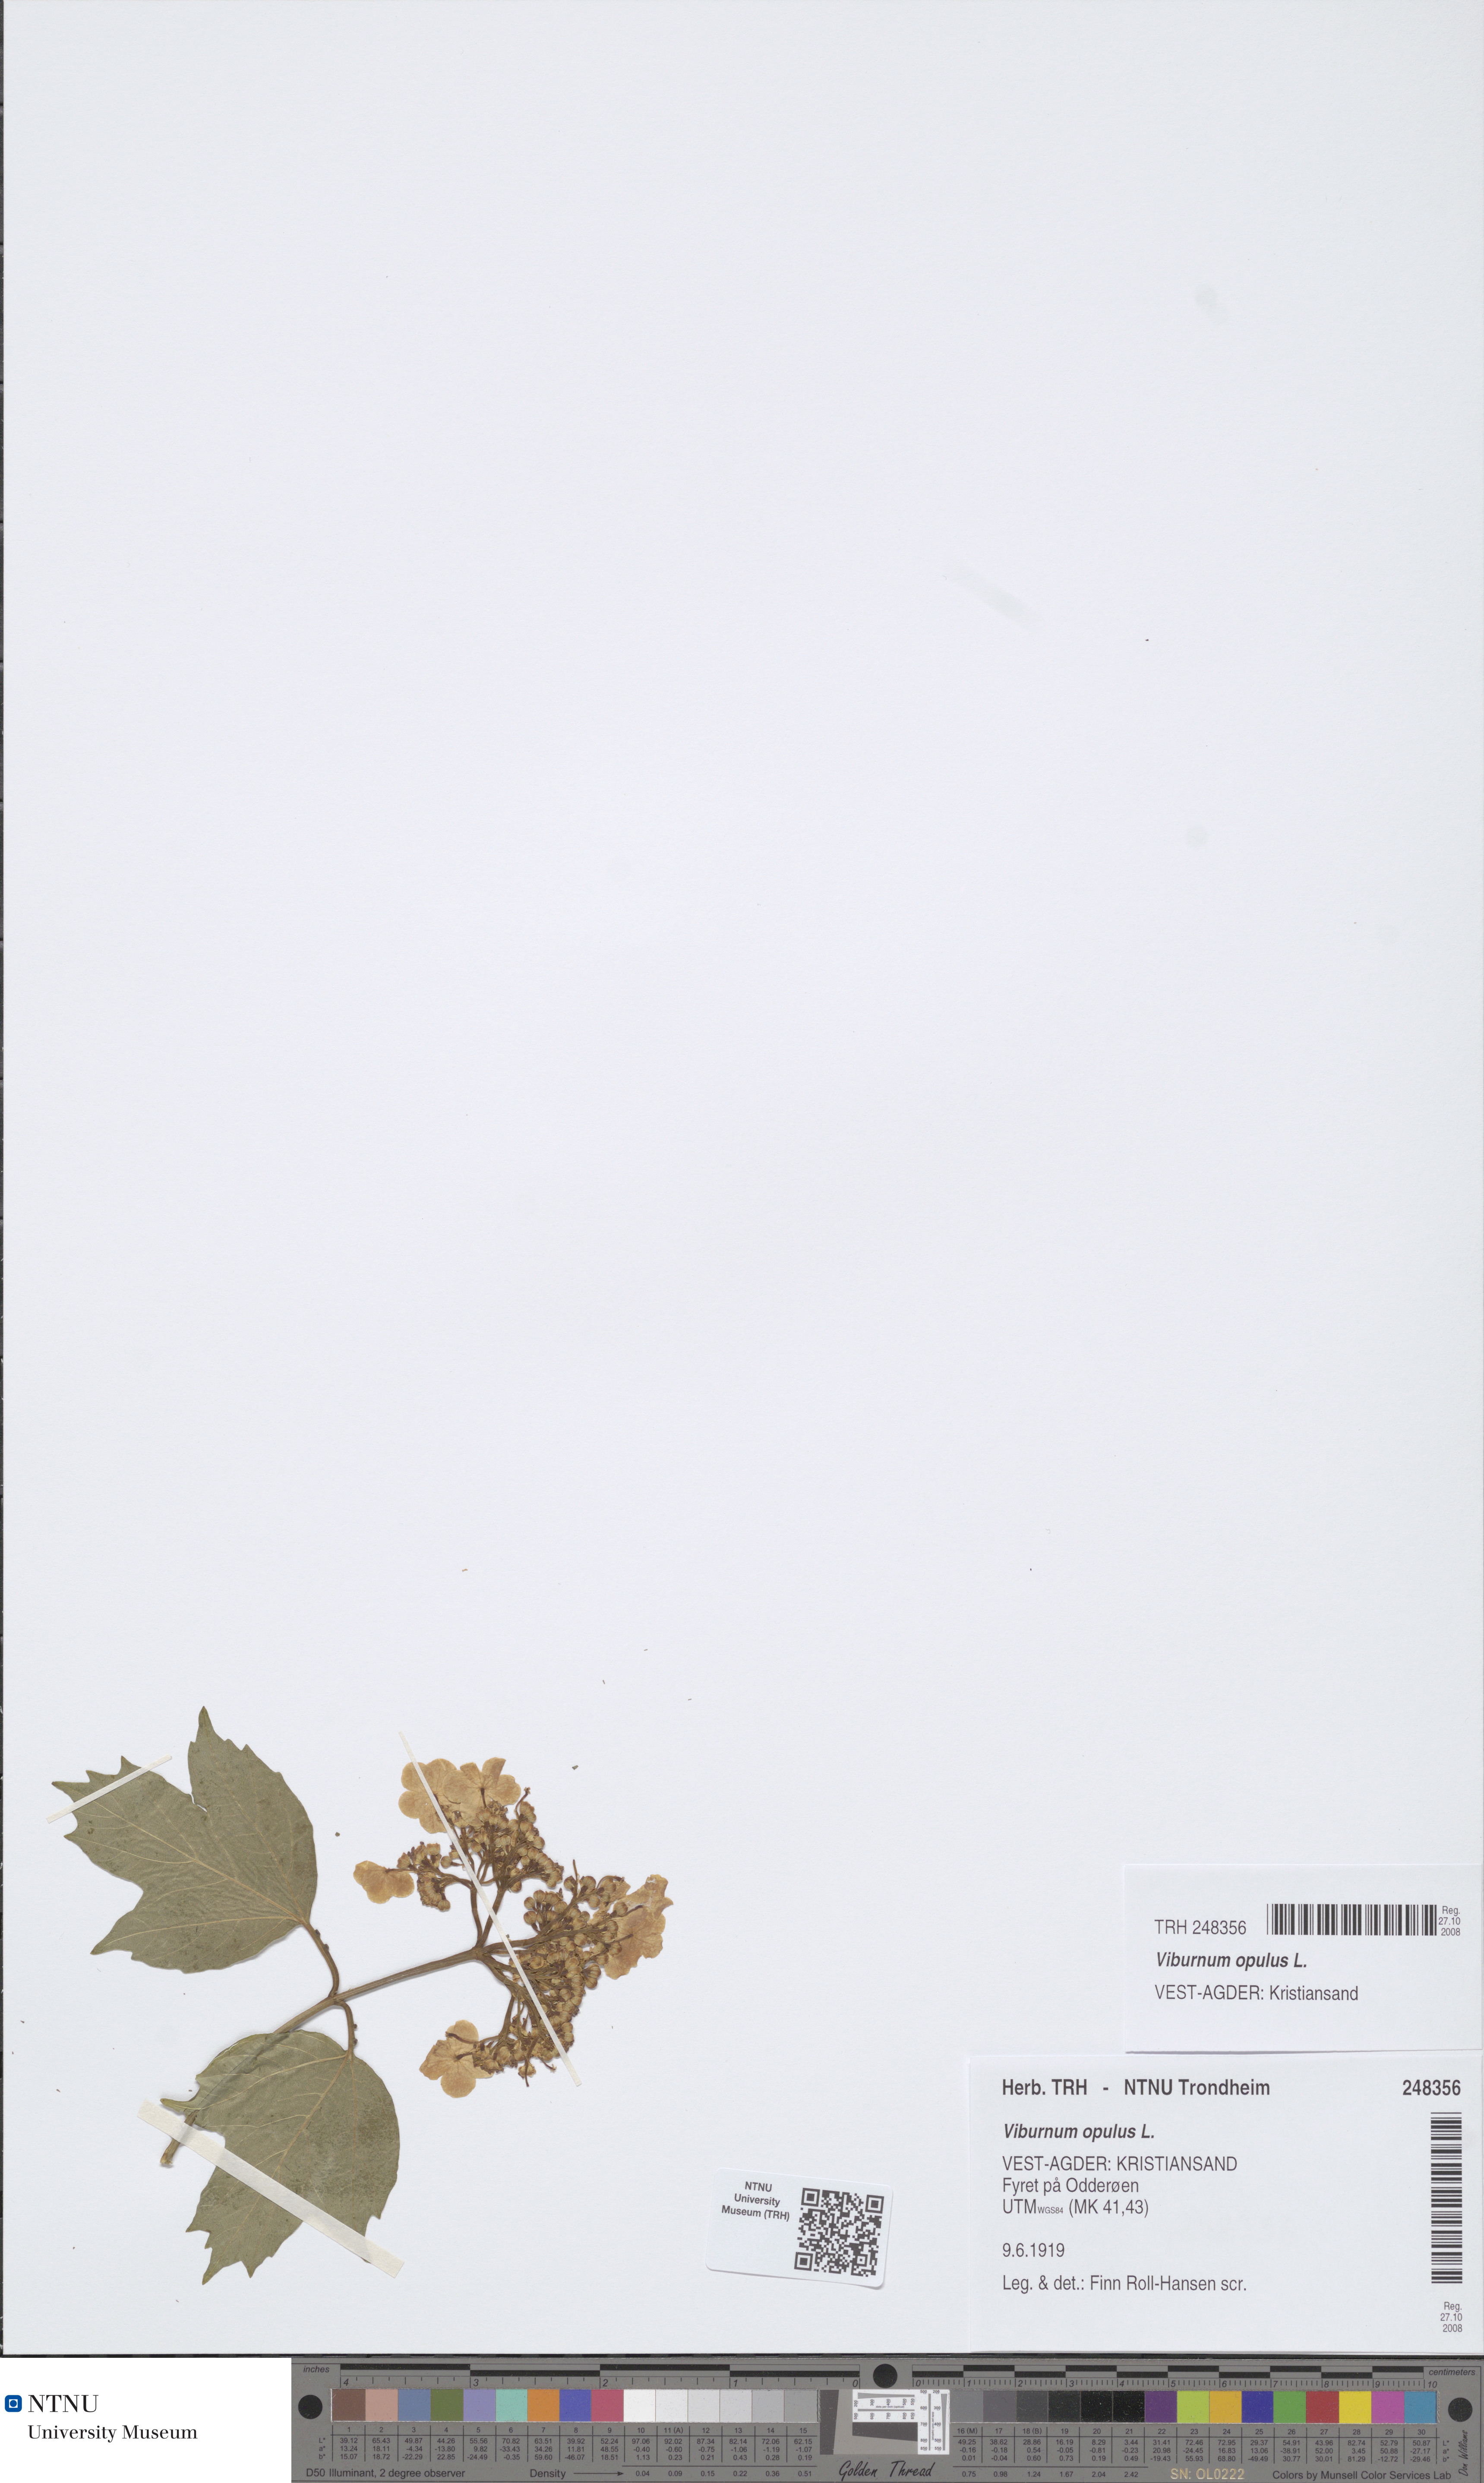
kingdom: Plantae
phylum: Tracheophyta
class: Magnoliopsida
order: Dipsacales
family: Viburnaceae
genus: Viburnum
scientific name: Viburnum opulus
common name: Guelder-rose
